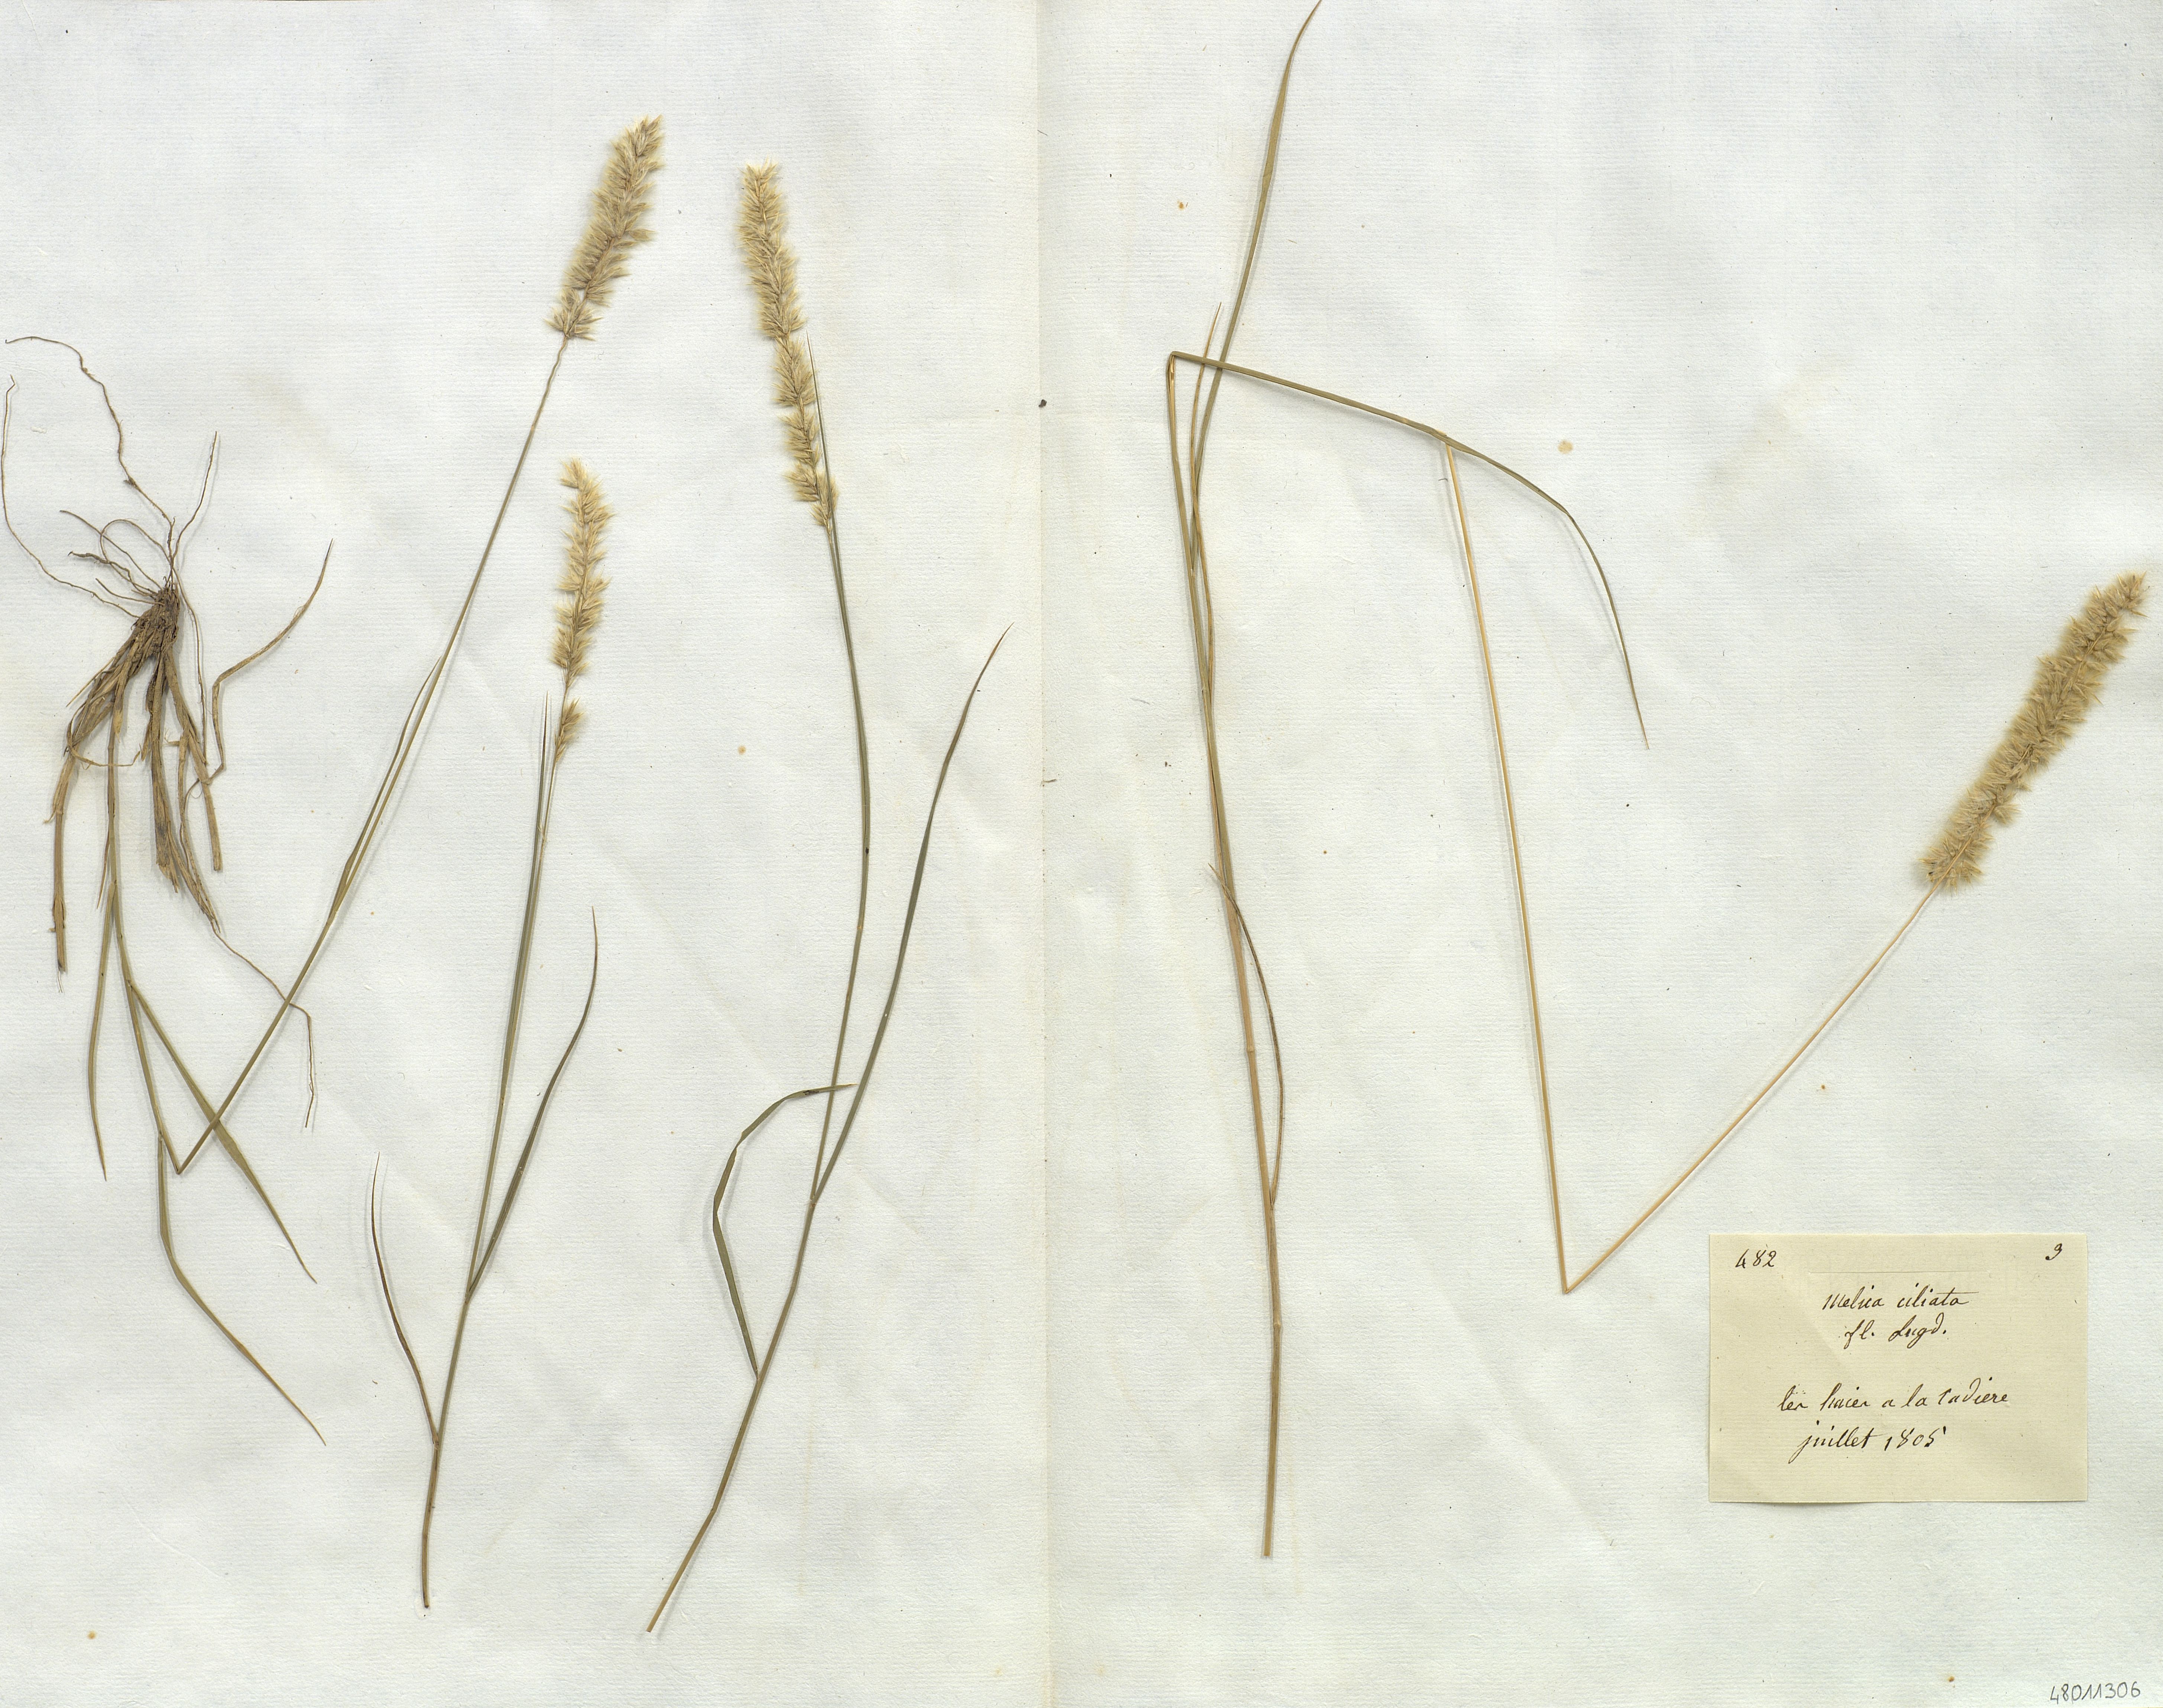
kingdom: Plantae
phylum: Tracheophyta
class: Liliopsida
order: Poales
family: Poaceae
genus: Melica
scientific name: Melica ciliata
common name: Hairy melicgrass
